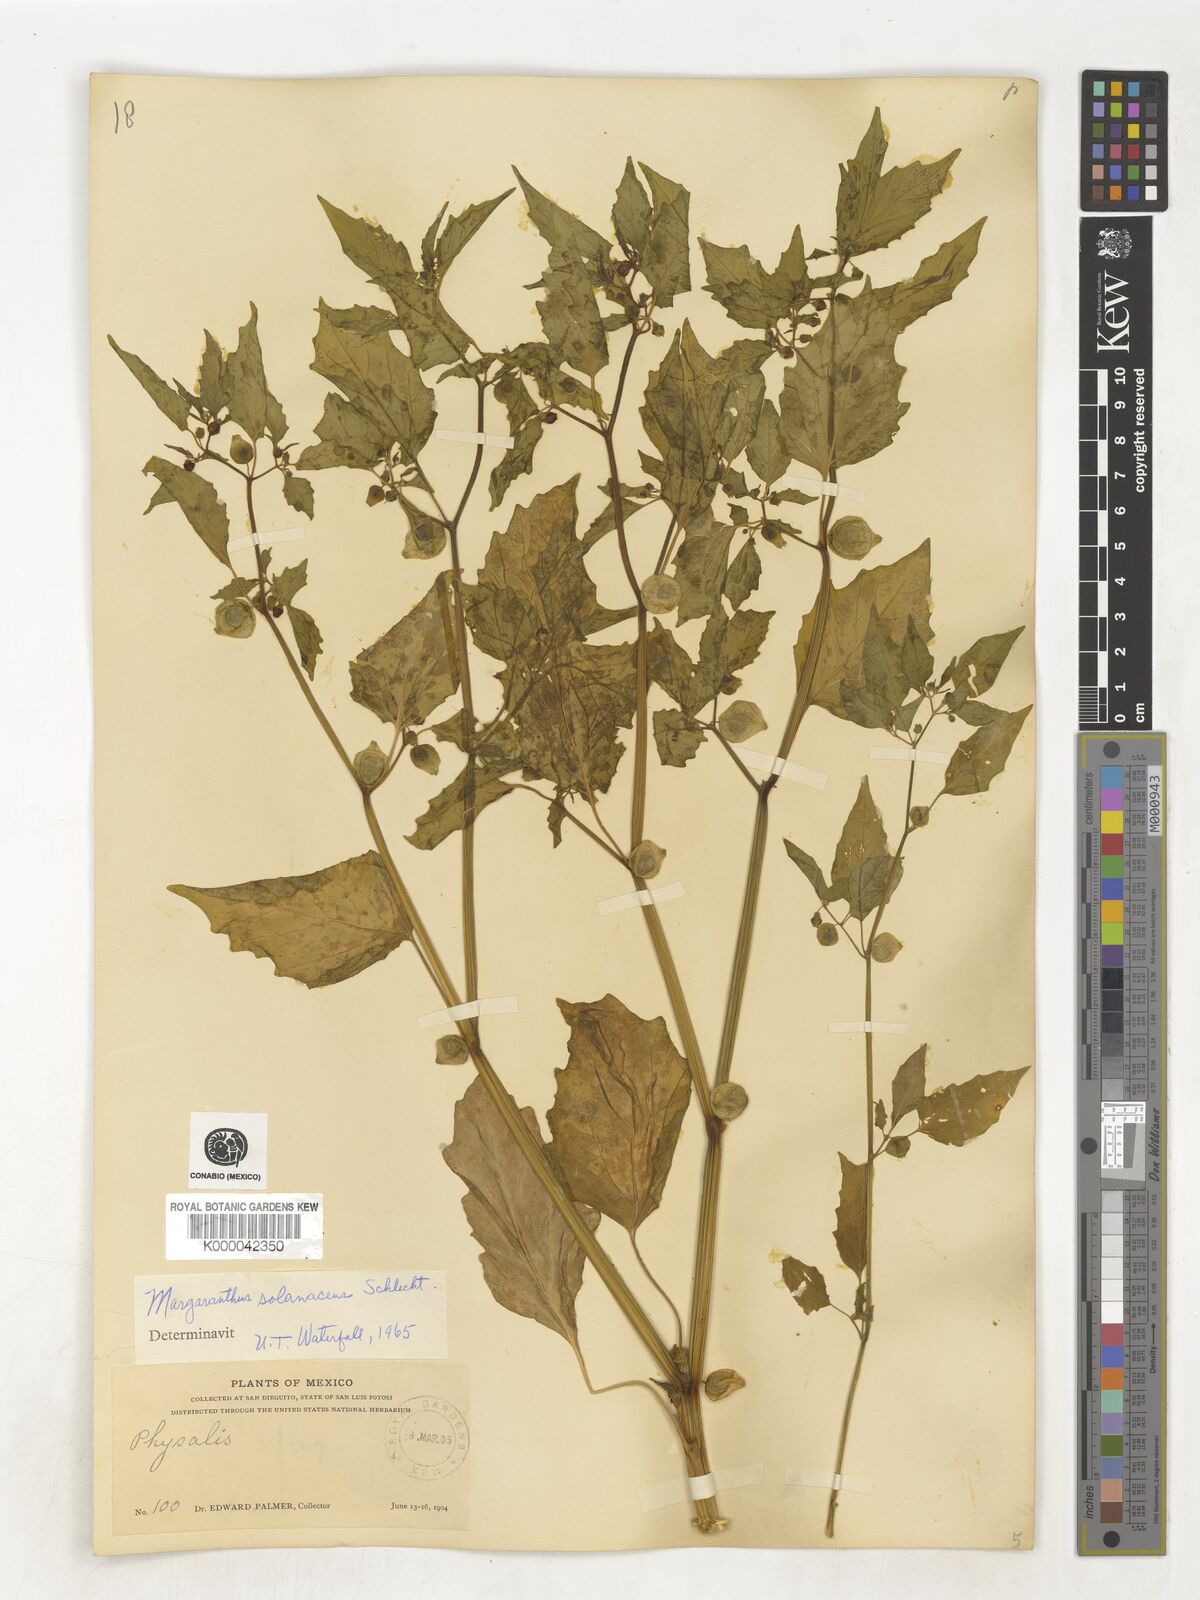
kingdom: Plantae
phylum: Tracheophyta
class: Magnoliopsida
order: Solanales
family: Solanaceae
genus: Physalis
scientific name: Physalis
